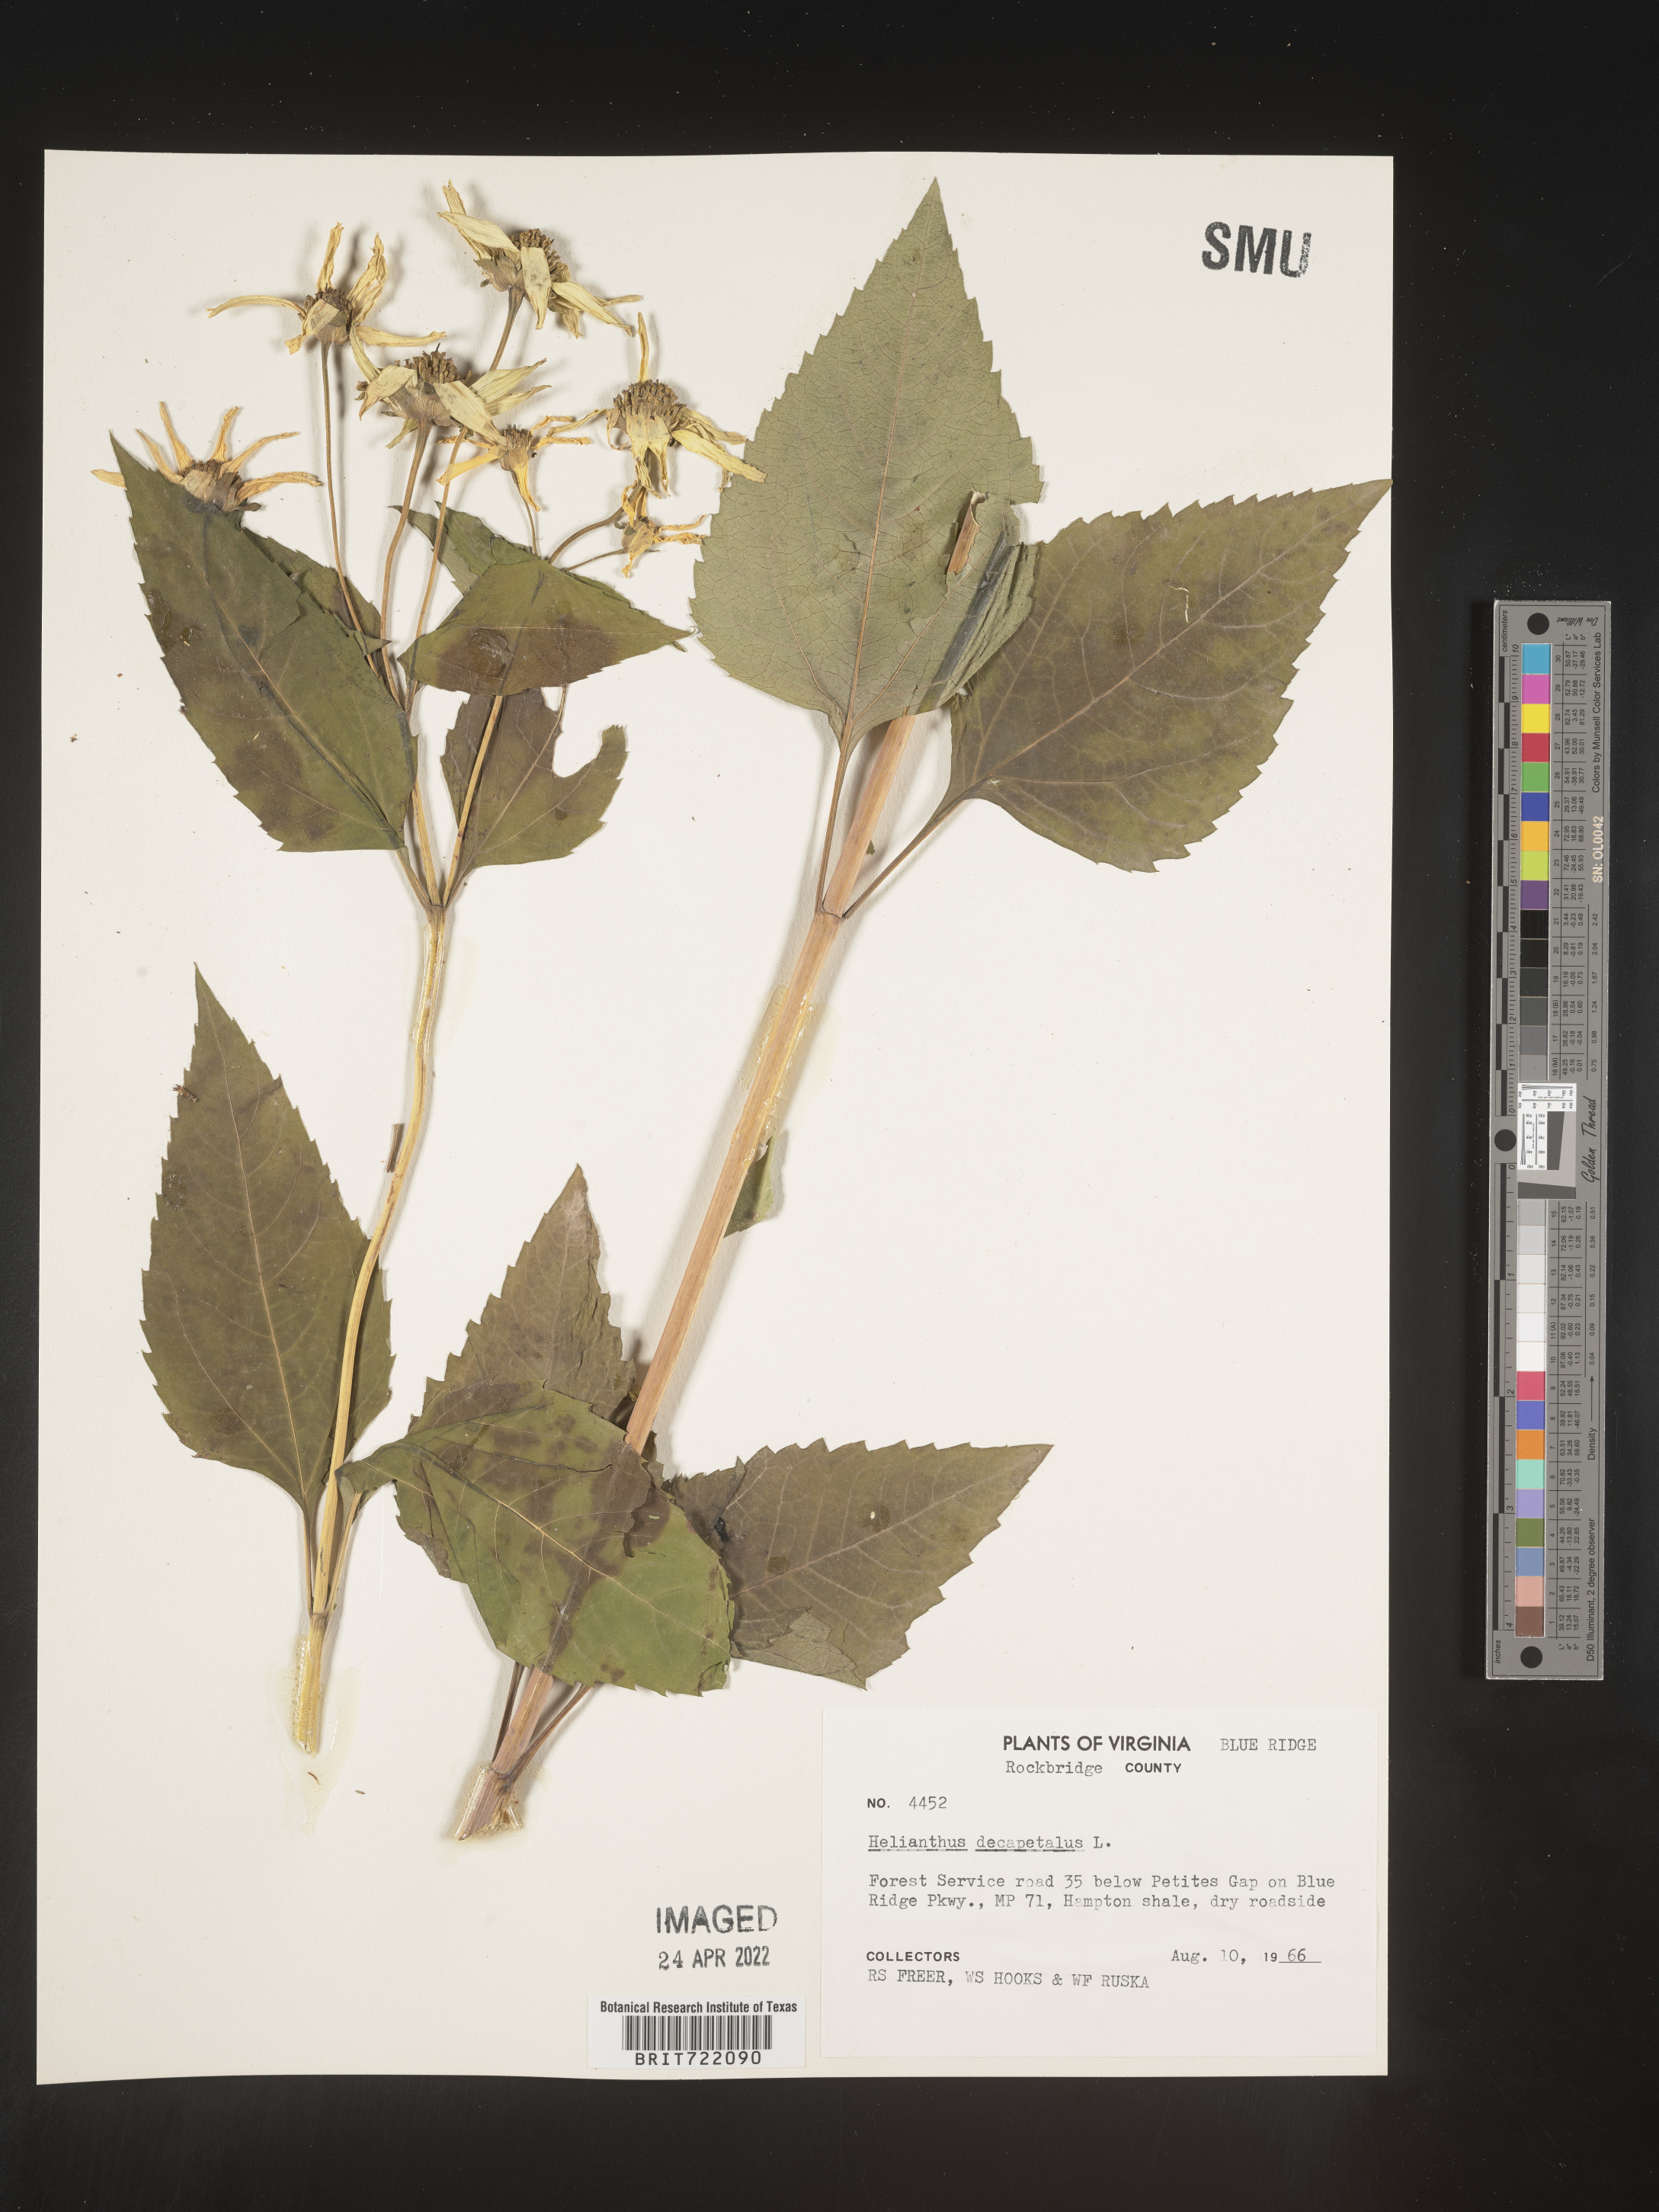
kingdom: Plantae
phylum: Tracheophyta
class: Magnoliopsida
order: Asterales
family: Asteraceae
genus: Helianthus
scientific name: Helianthus decapetalus
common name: Thin-leaved sunflower
